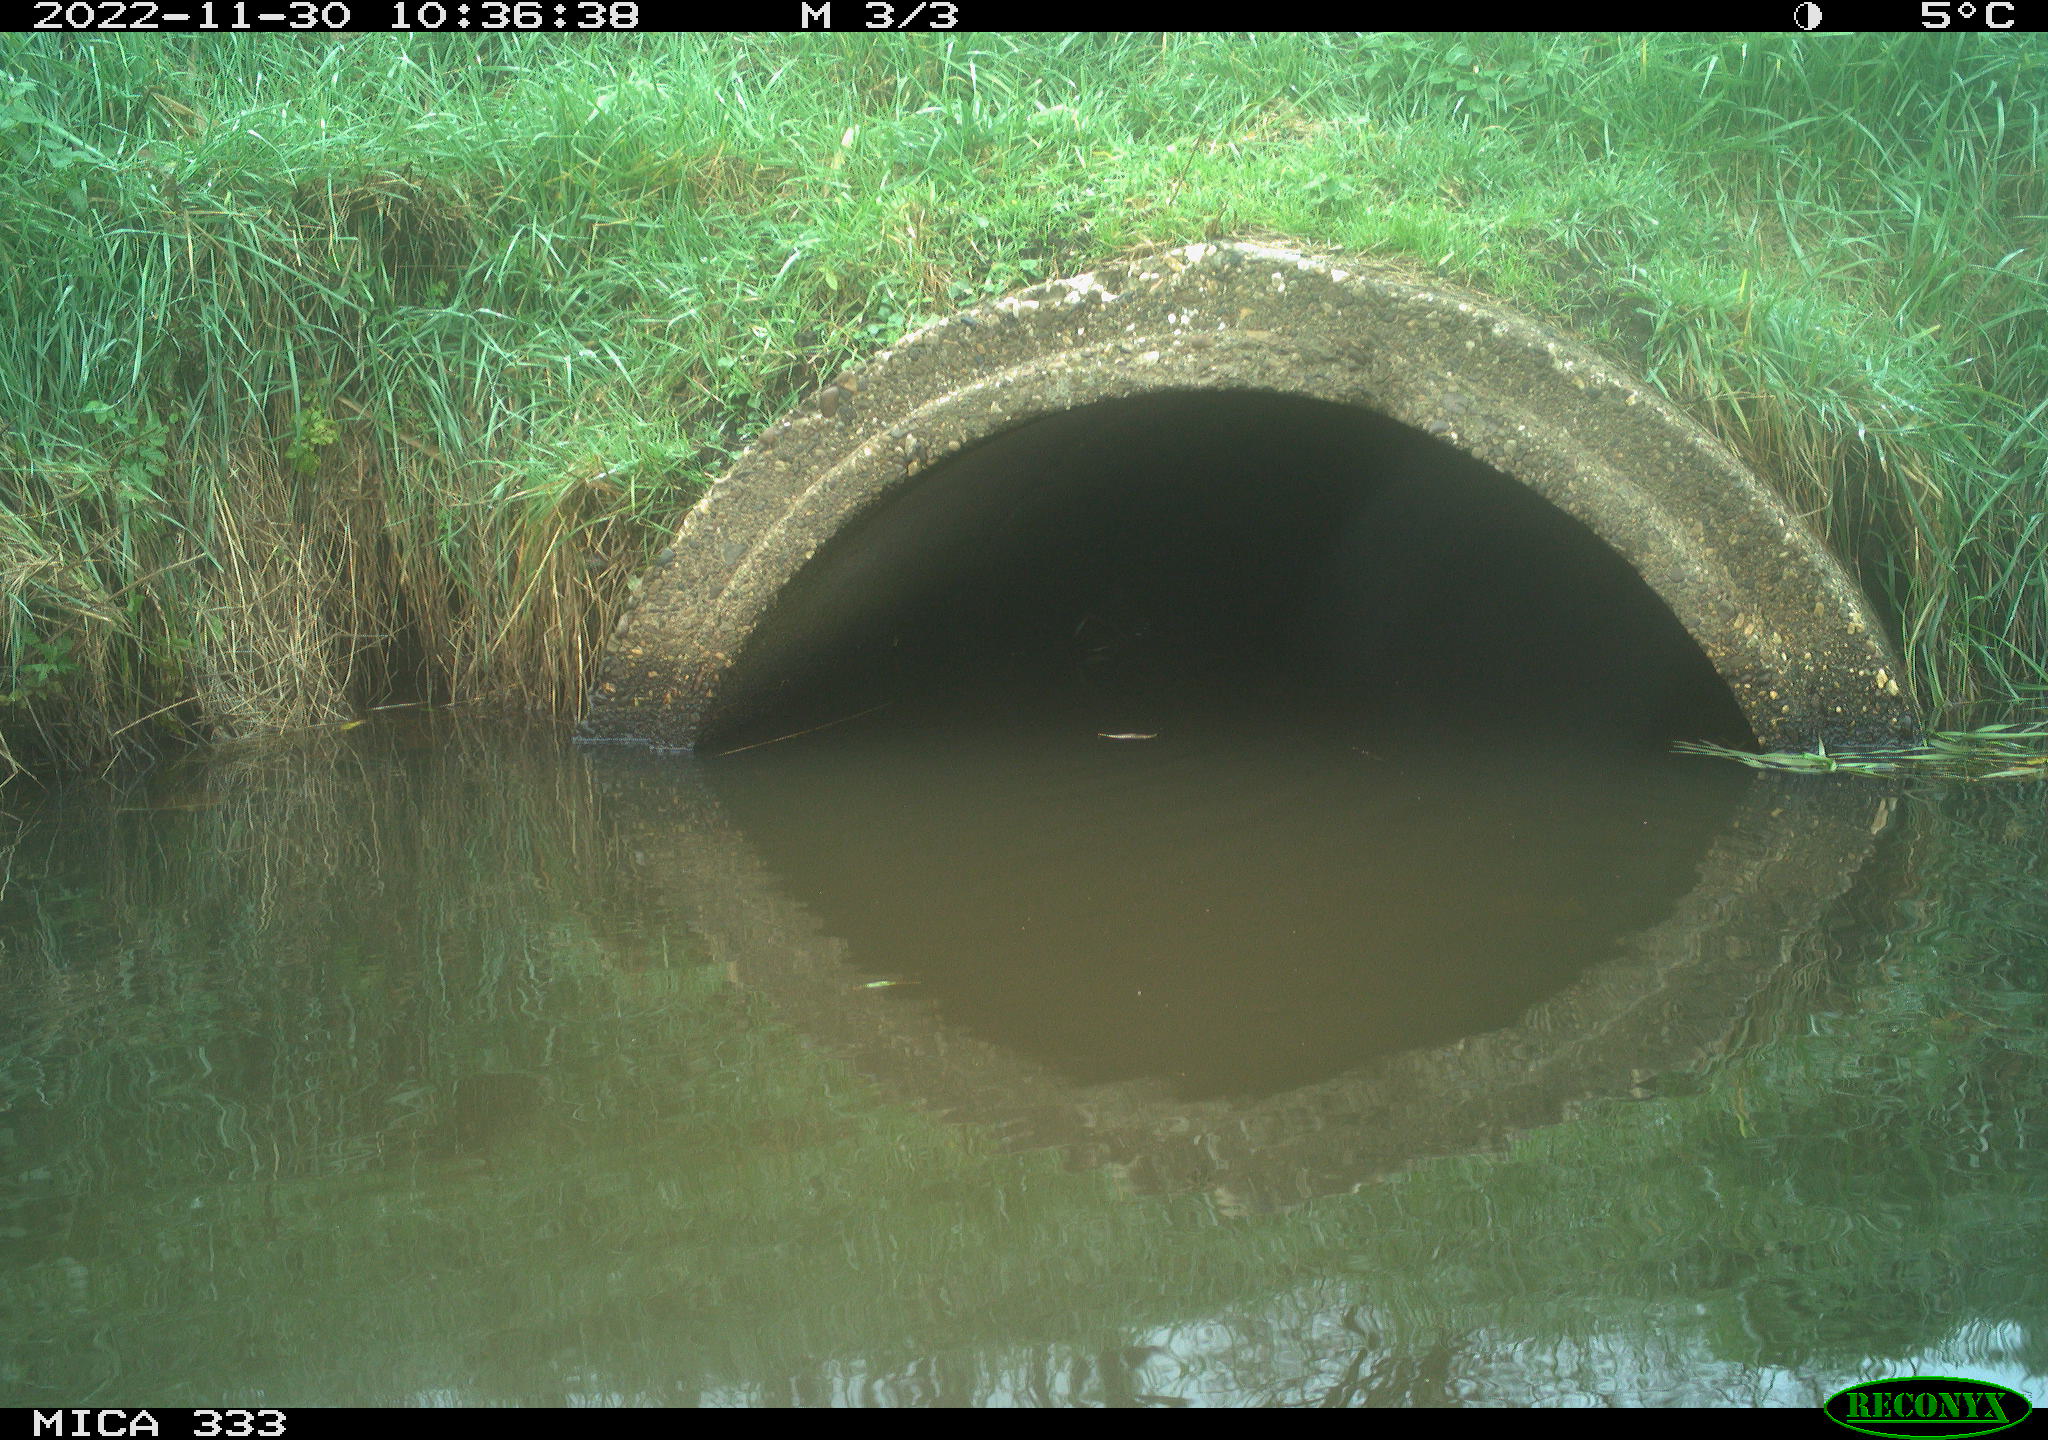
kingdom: Animalia
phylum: Chordata
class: Aves
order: Gruiformes
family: Rallidae
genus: Gallinula
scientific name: Gallinula chloropus
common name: Common moorhen
